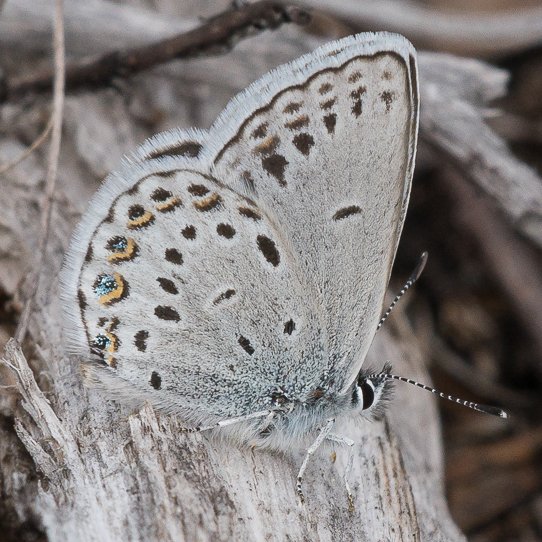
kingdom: Animalia
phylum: Arthropoda
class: Insecta
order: Lepidoptera
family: Lycaenidae
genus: Lycaeides
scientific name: Lycaeides idas
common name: Northern Blue
